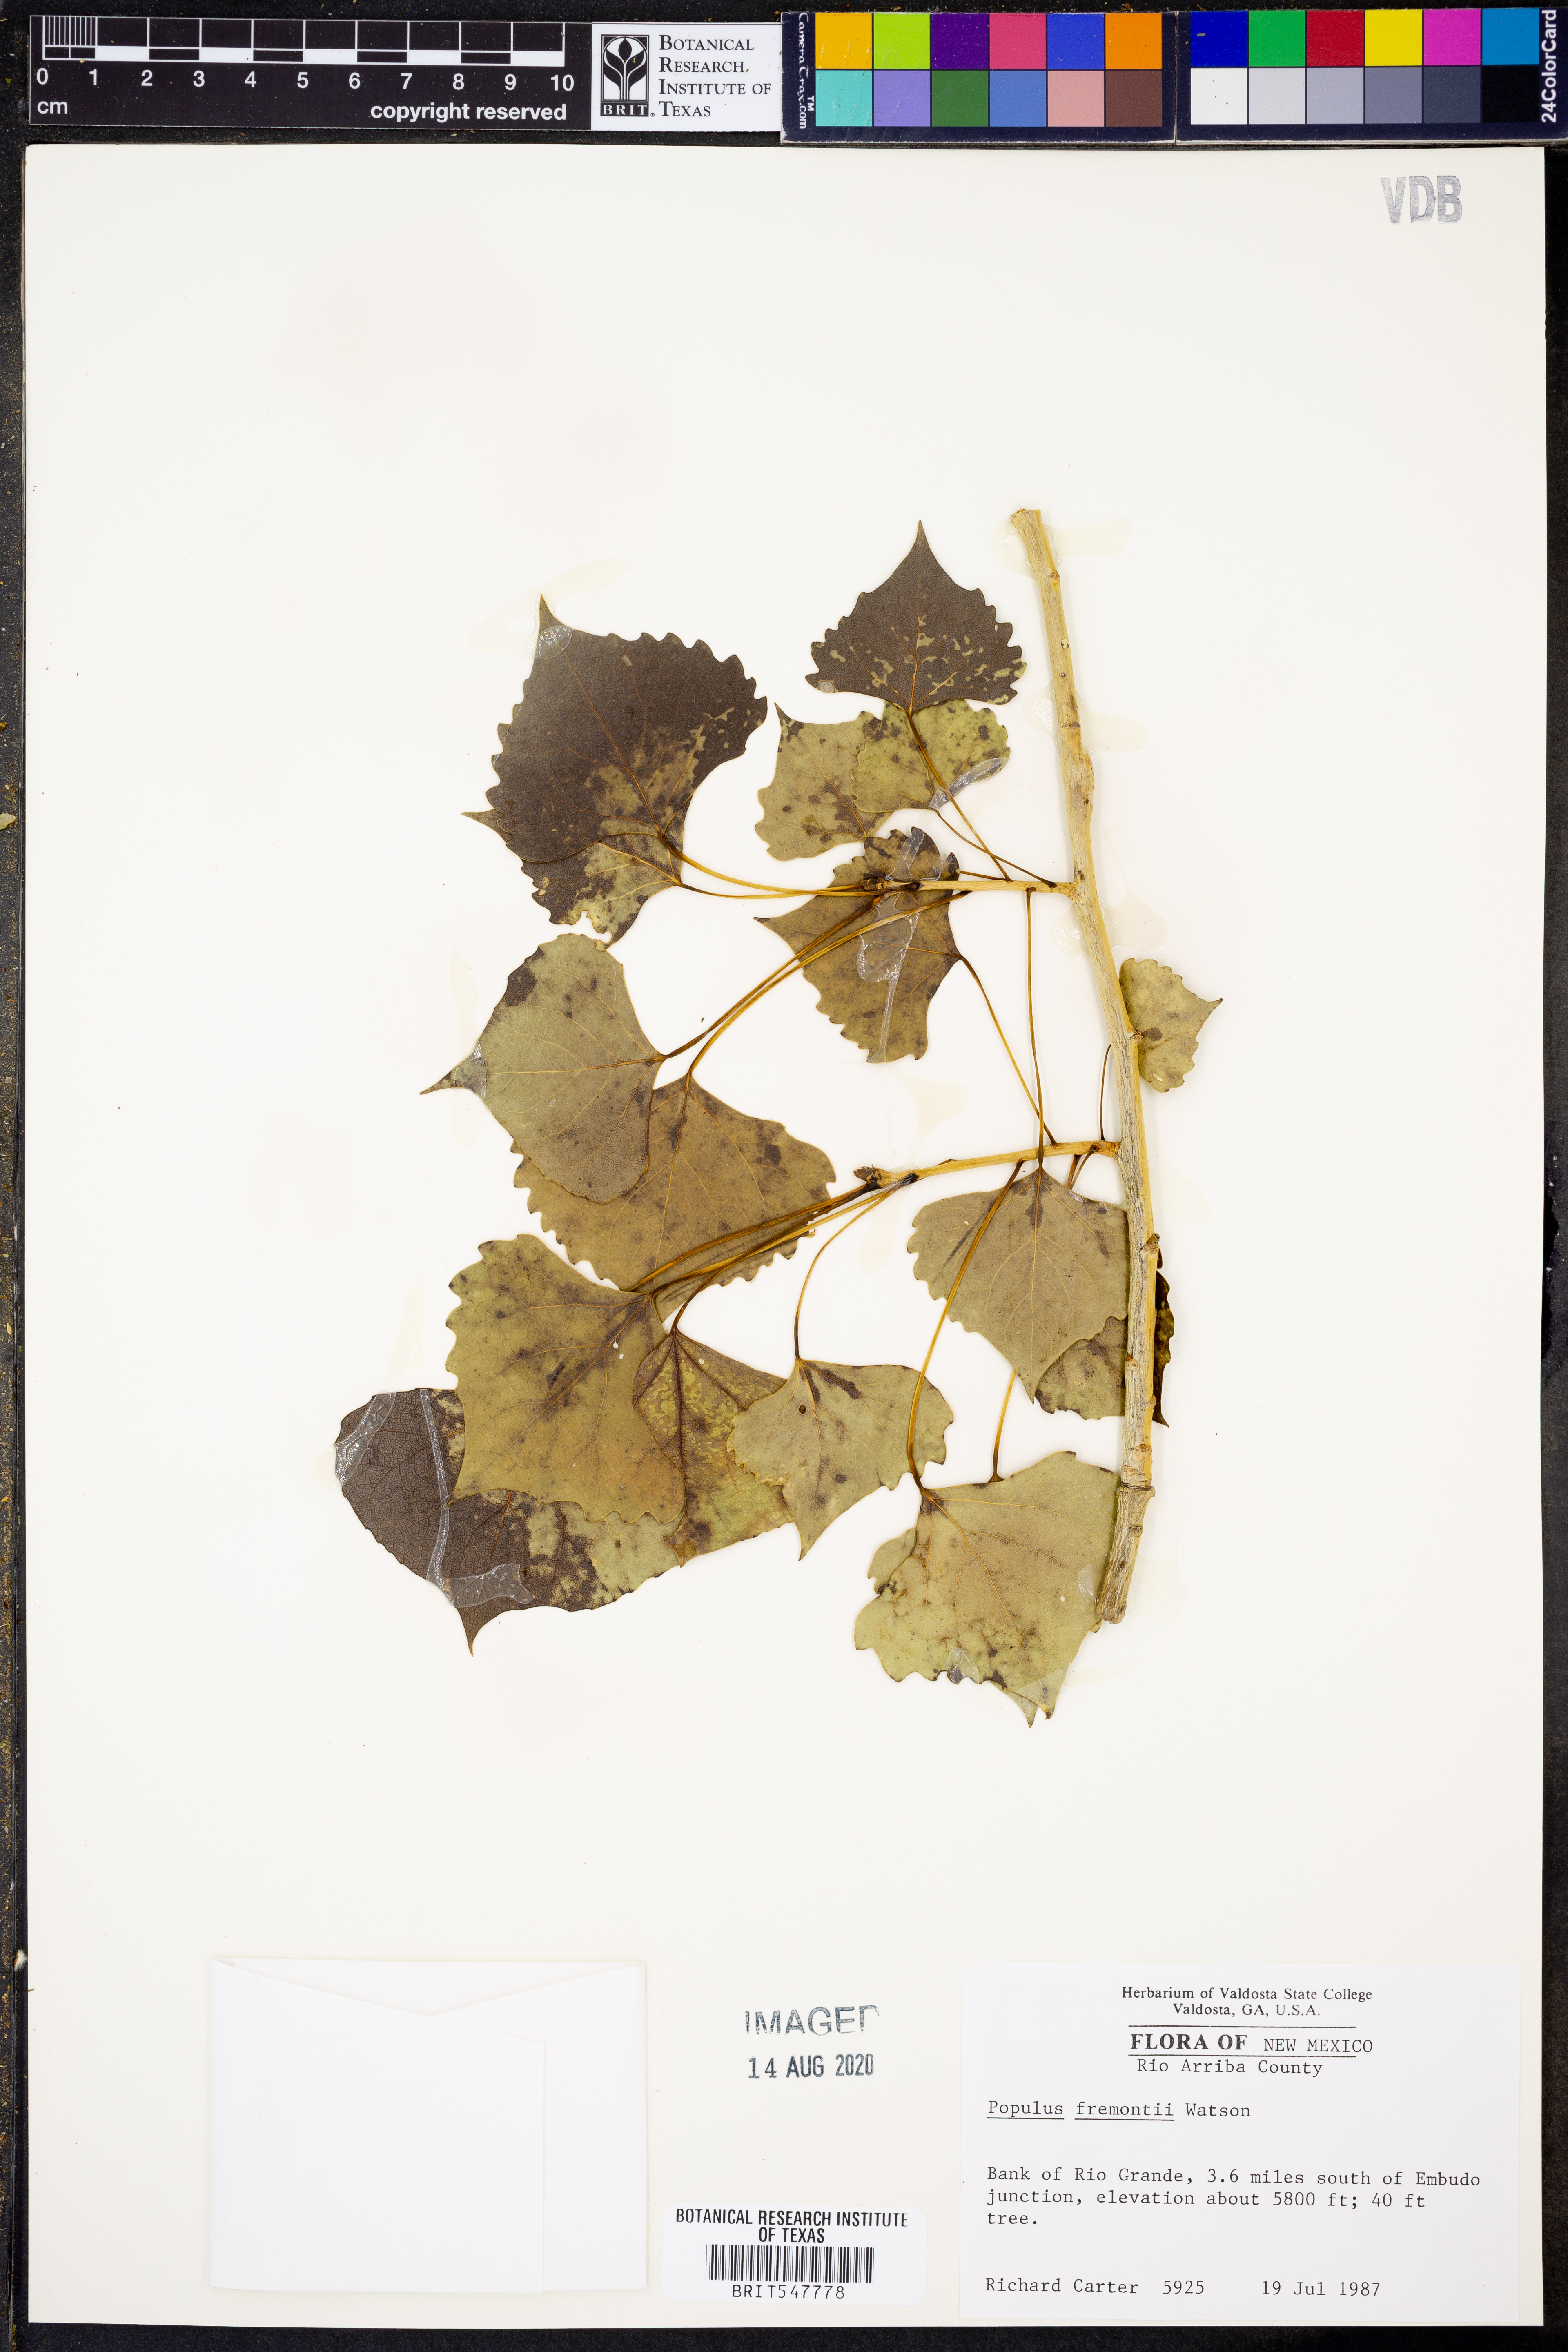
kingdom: Plantae
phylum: Tracheophyta
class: Magnoliopsida
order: Malpighiales
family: Salicaceae
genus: Populus
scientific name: Populus fremontii
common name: Fremont's cottonwood
